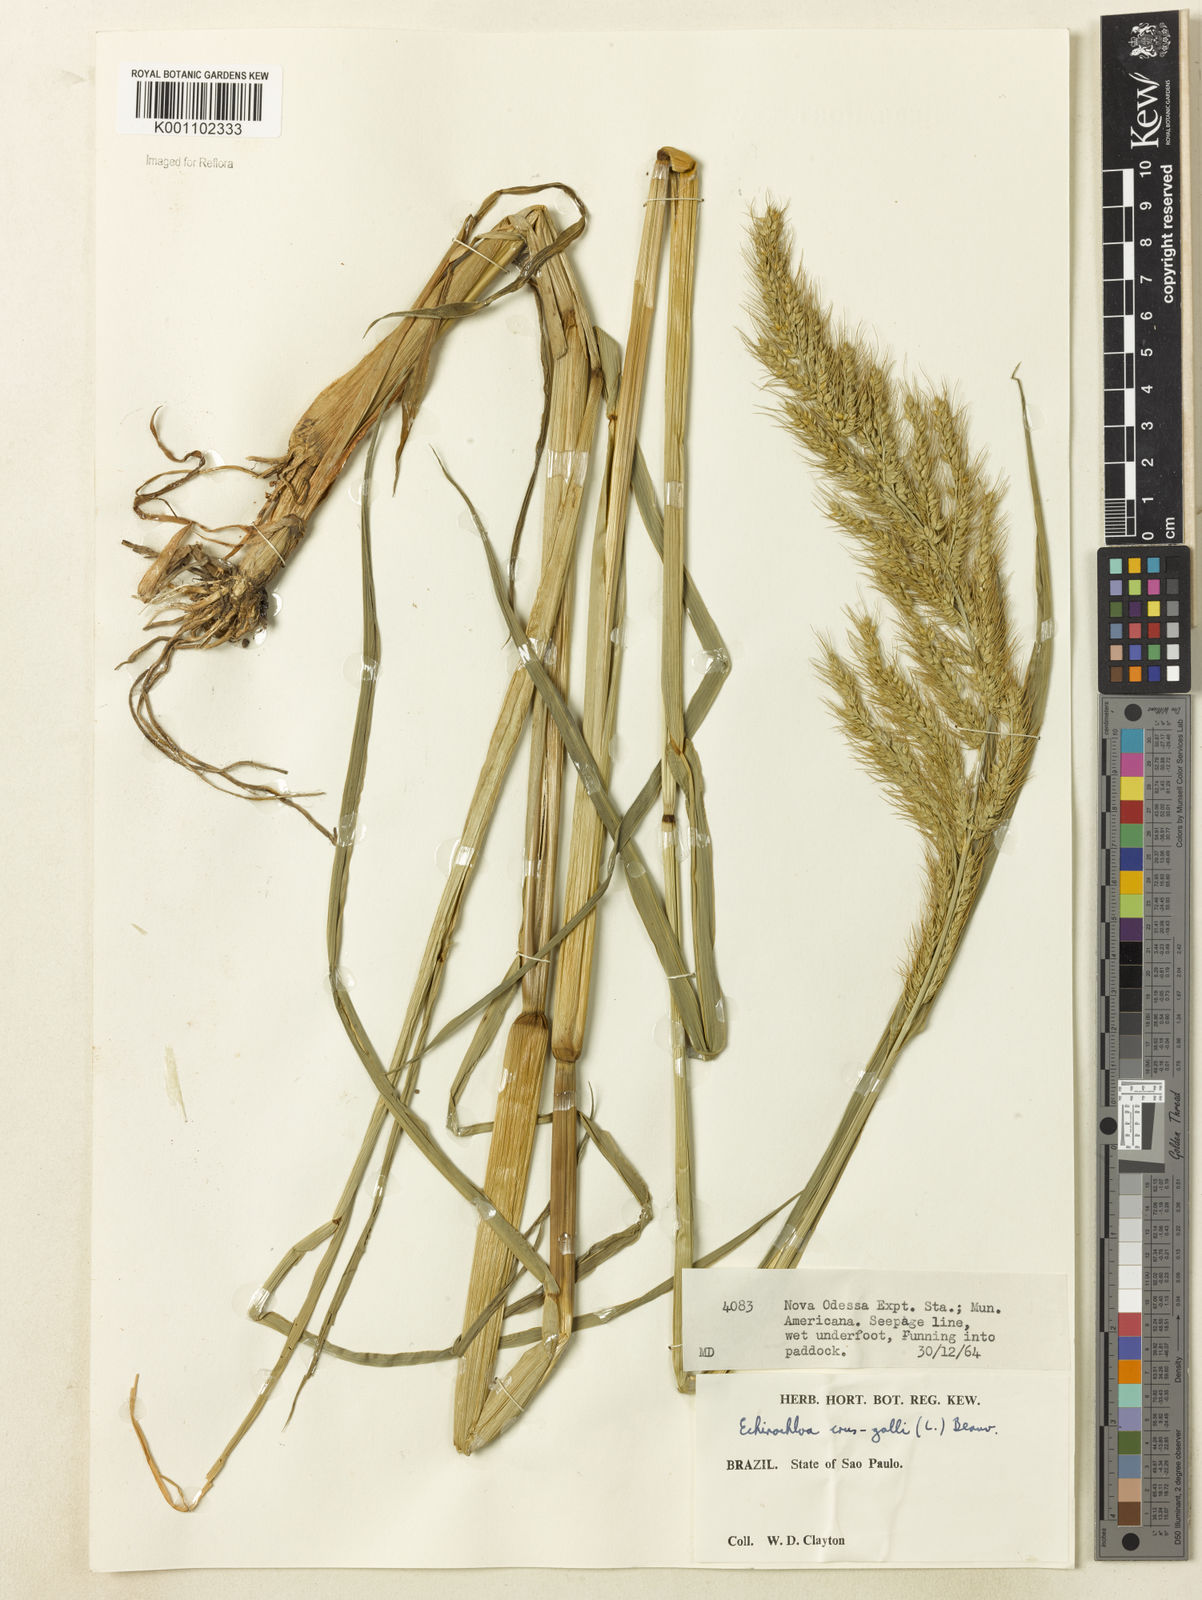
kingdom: Plantae
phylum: Tracheophyta
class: Liliopsida
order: Poales
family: Poaceae
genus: Echinochloa
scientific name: Echinochloa walteri
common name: Coast barnyard grass
